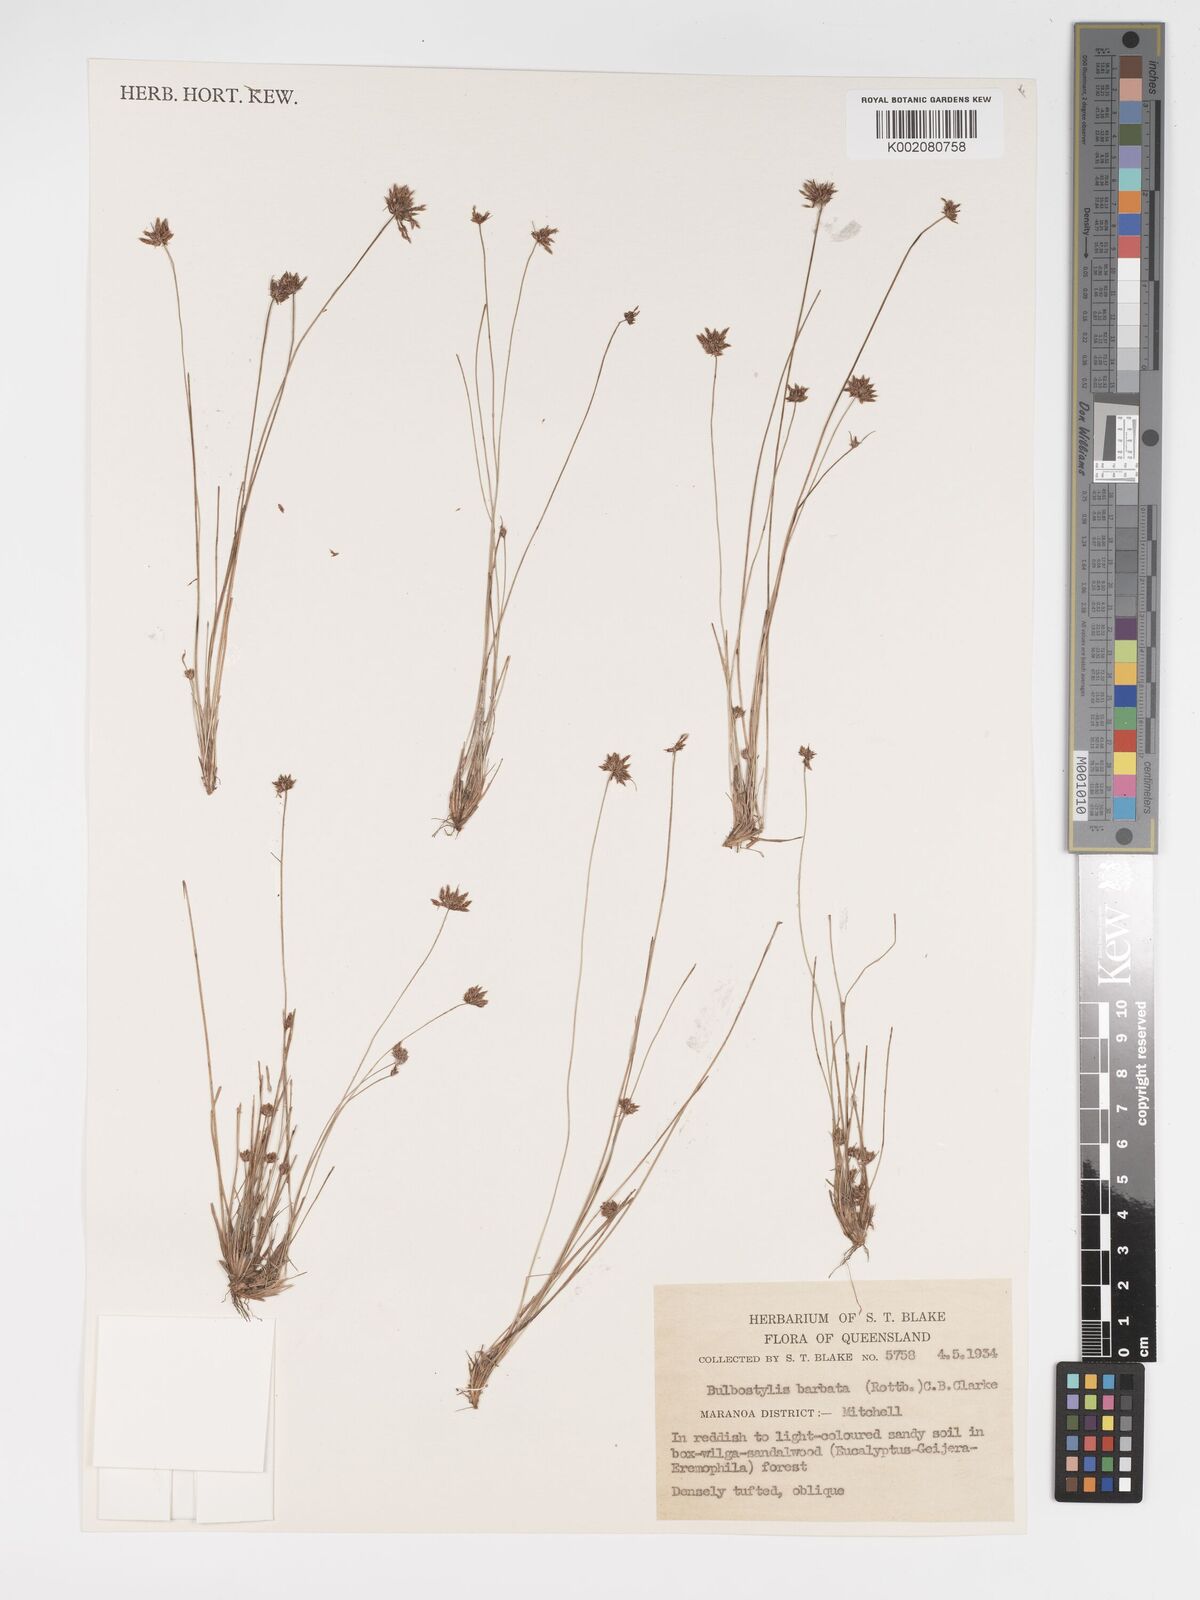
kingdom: Plantae
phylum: Tracheophyta
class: Liliopsida
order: Poales
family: Cyperaceae
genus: Bulbostylis
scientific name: Bulbostylis barbata
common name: Watergrass
